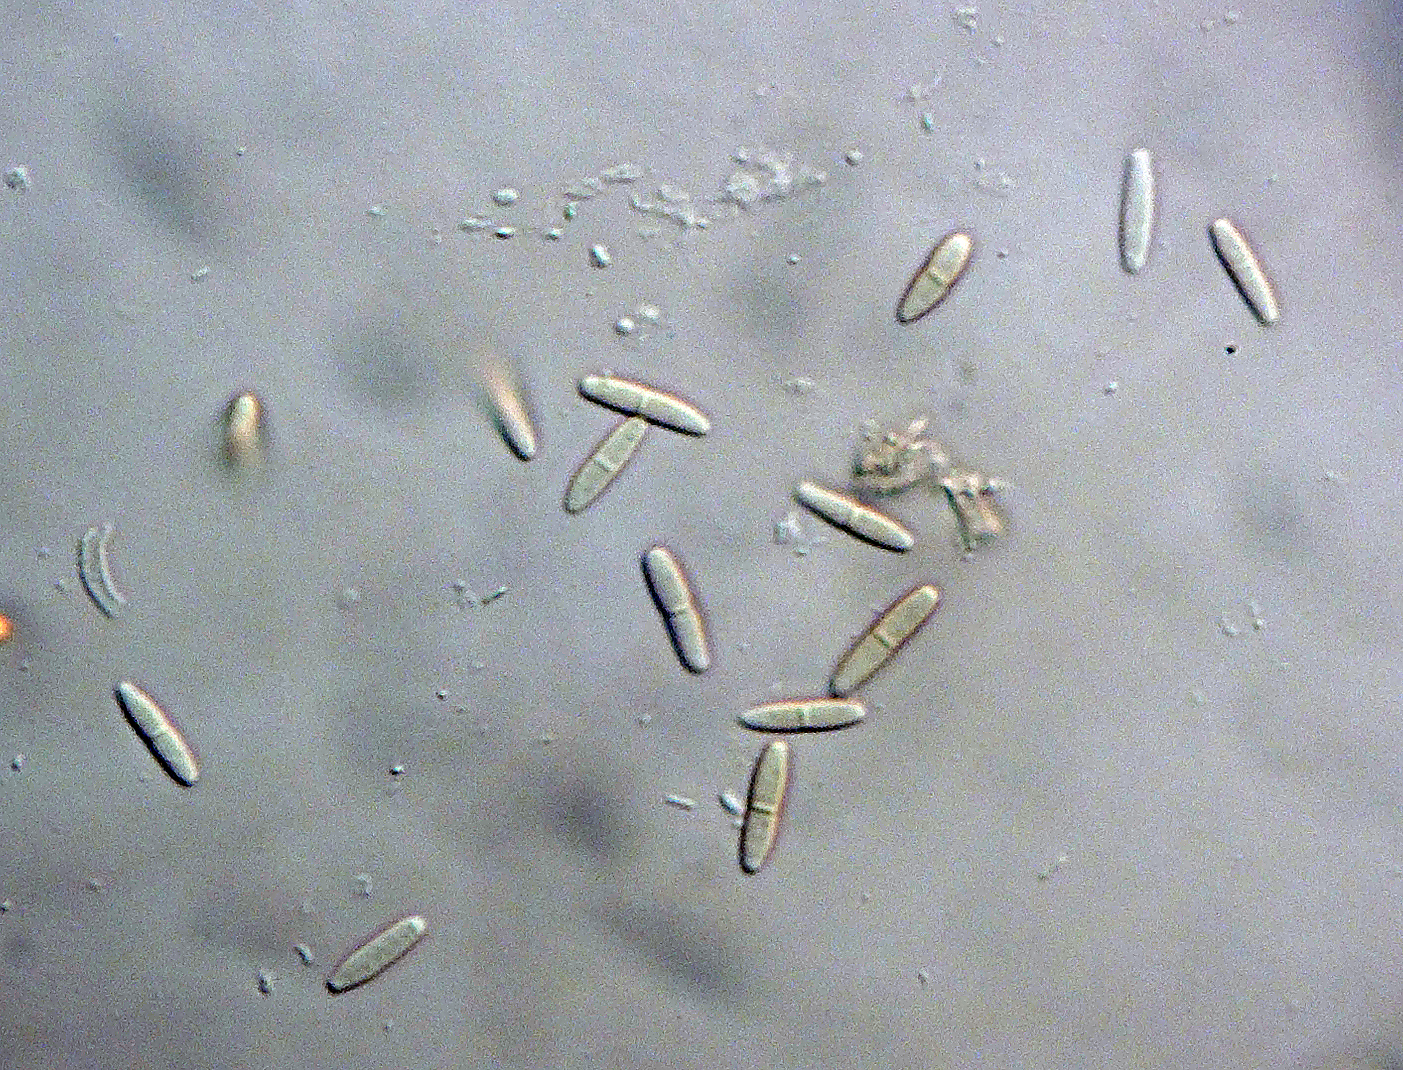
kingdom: Fungi
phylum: Ascomycota
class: Dothideomycetes
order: Pleosporales
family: Didymellaceae
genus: Phoma
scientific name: Phoma
